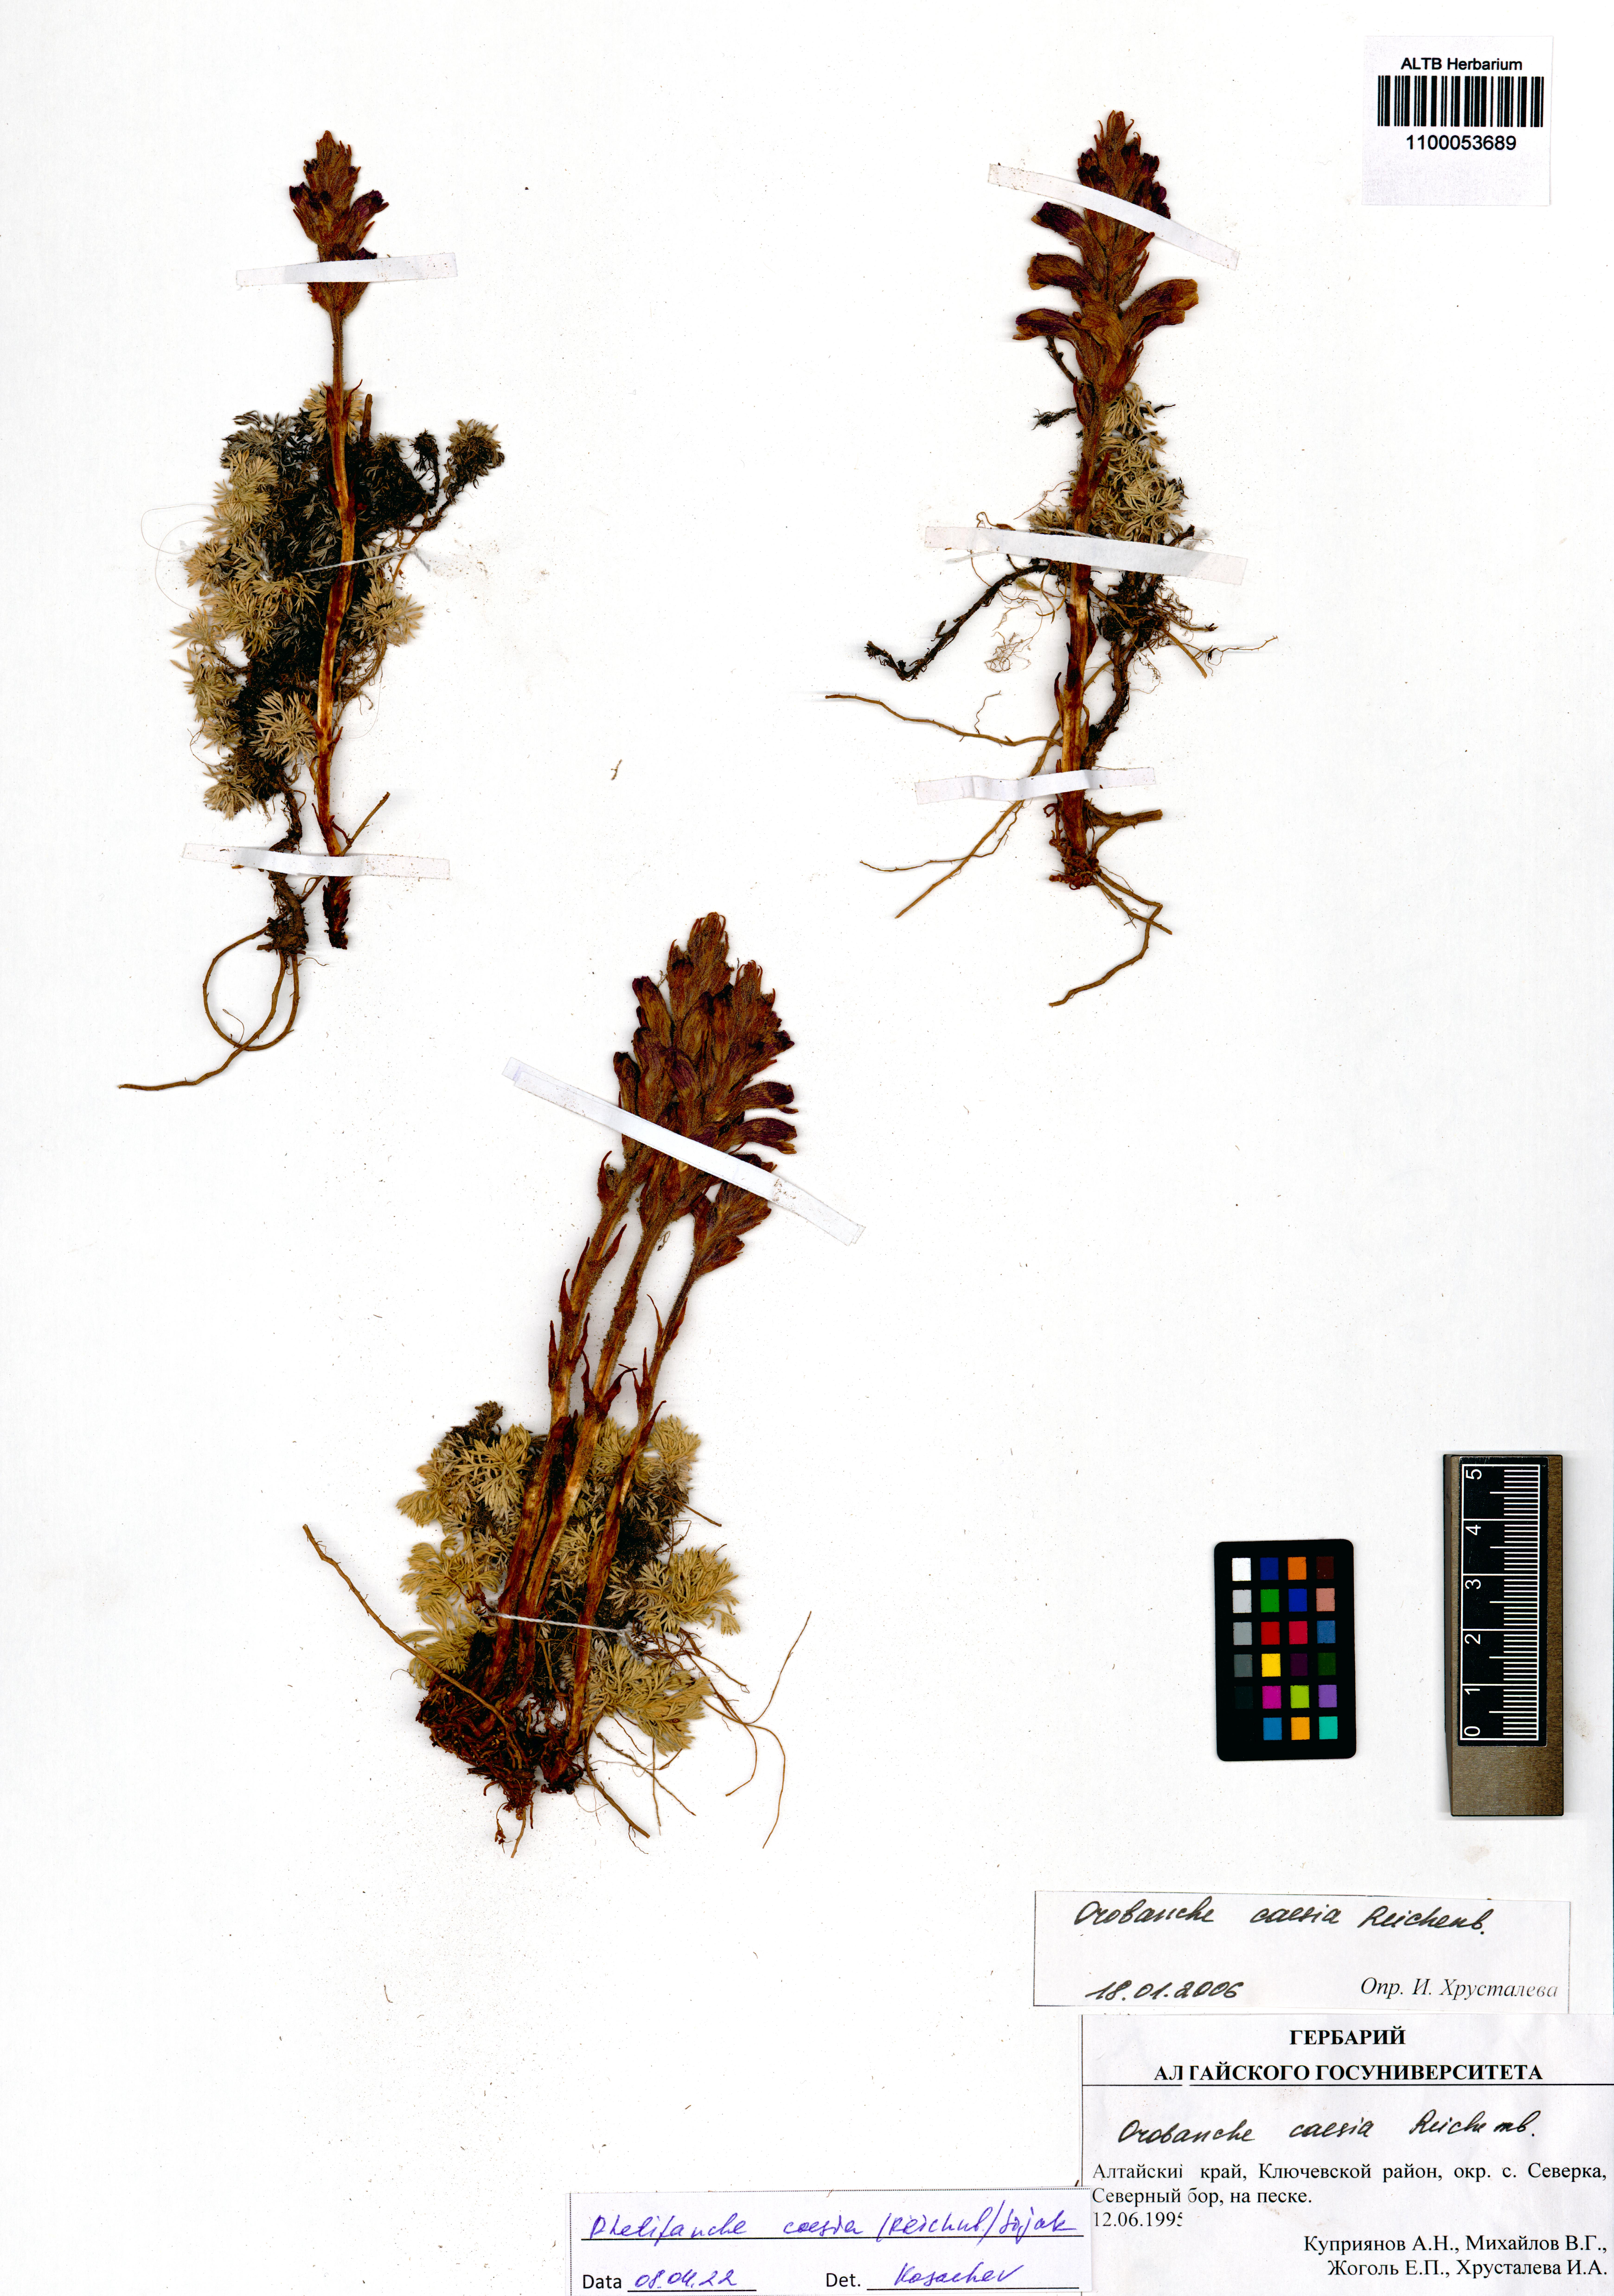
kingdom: Plantae
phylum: Tracheophyta
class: Magnoliopsida
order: Lamiales
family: Orobanchaceae
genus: Phelipanche
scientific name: Phelipanche caesia
